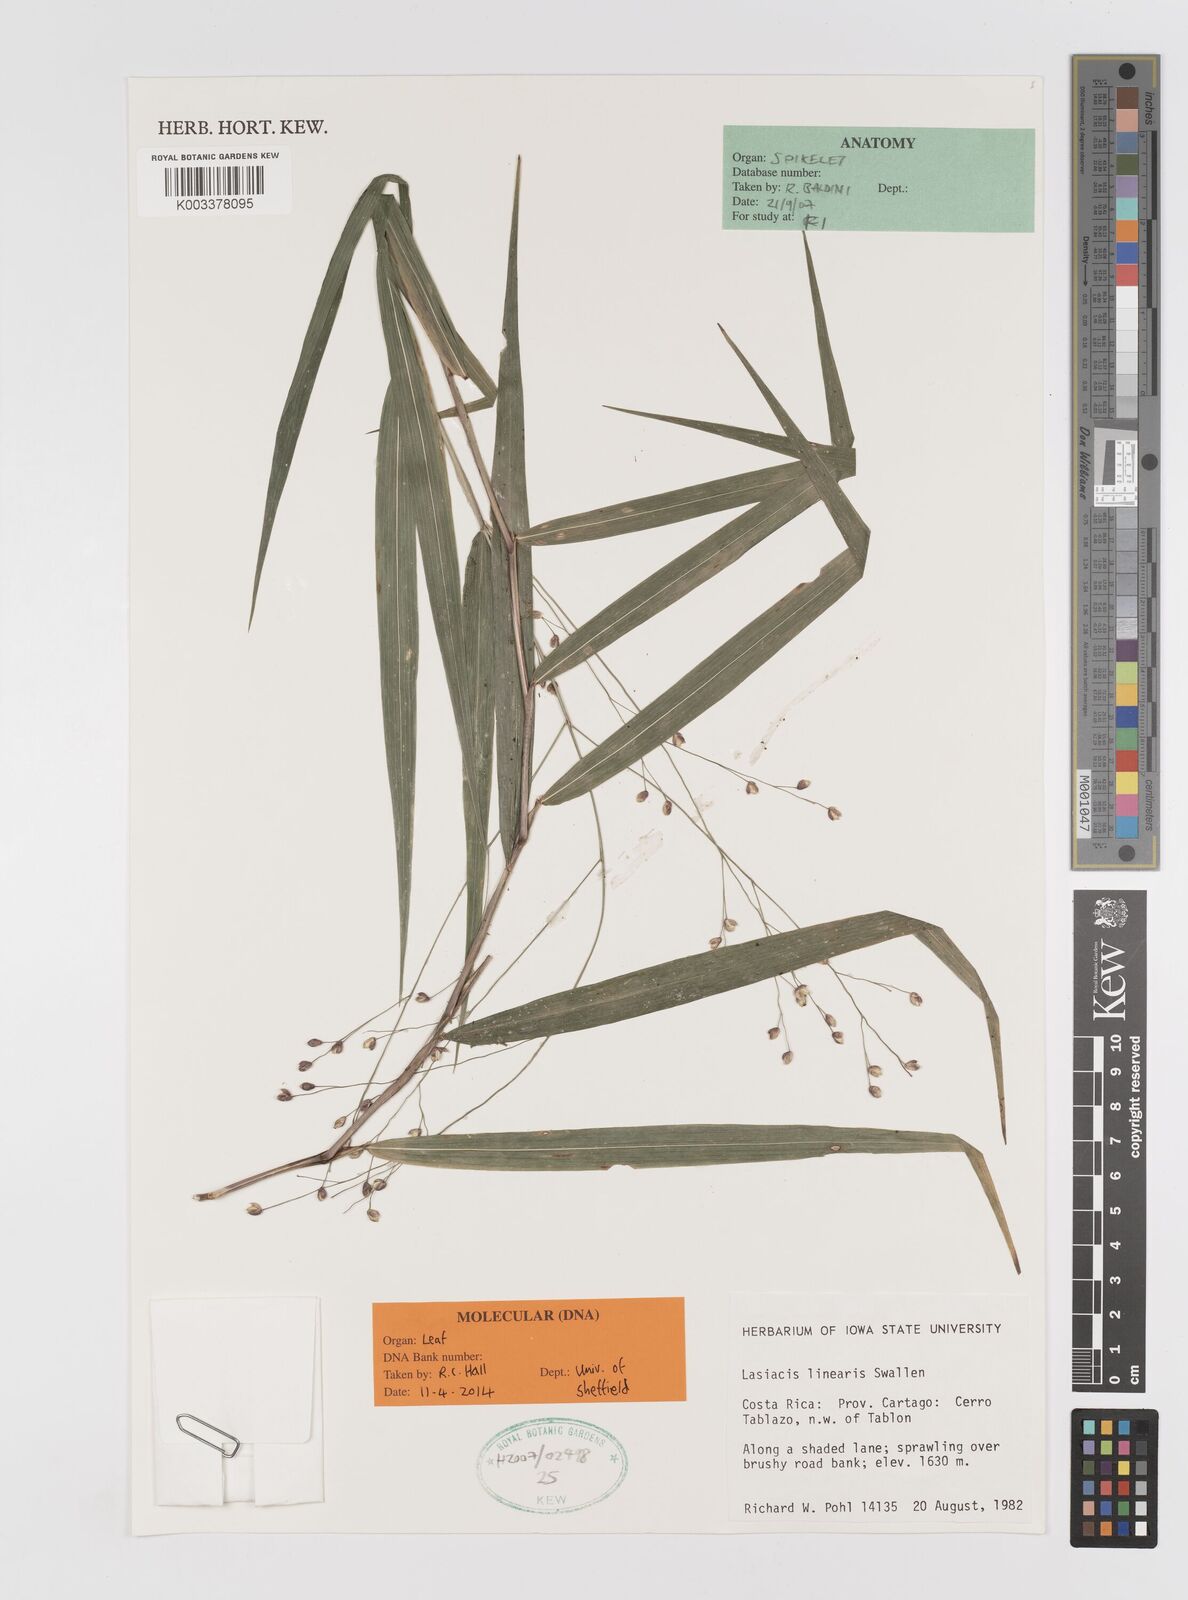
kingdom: Plantae
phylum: Tracheophyta
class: Liliopsida
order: Poales
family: Poaceae
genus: Lasiacis
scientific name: Lasiacis linearis
